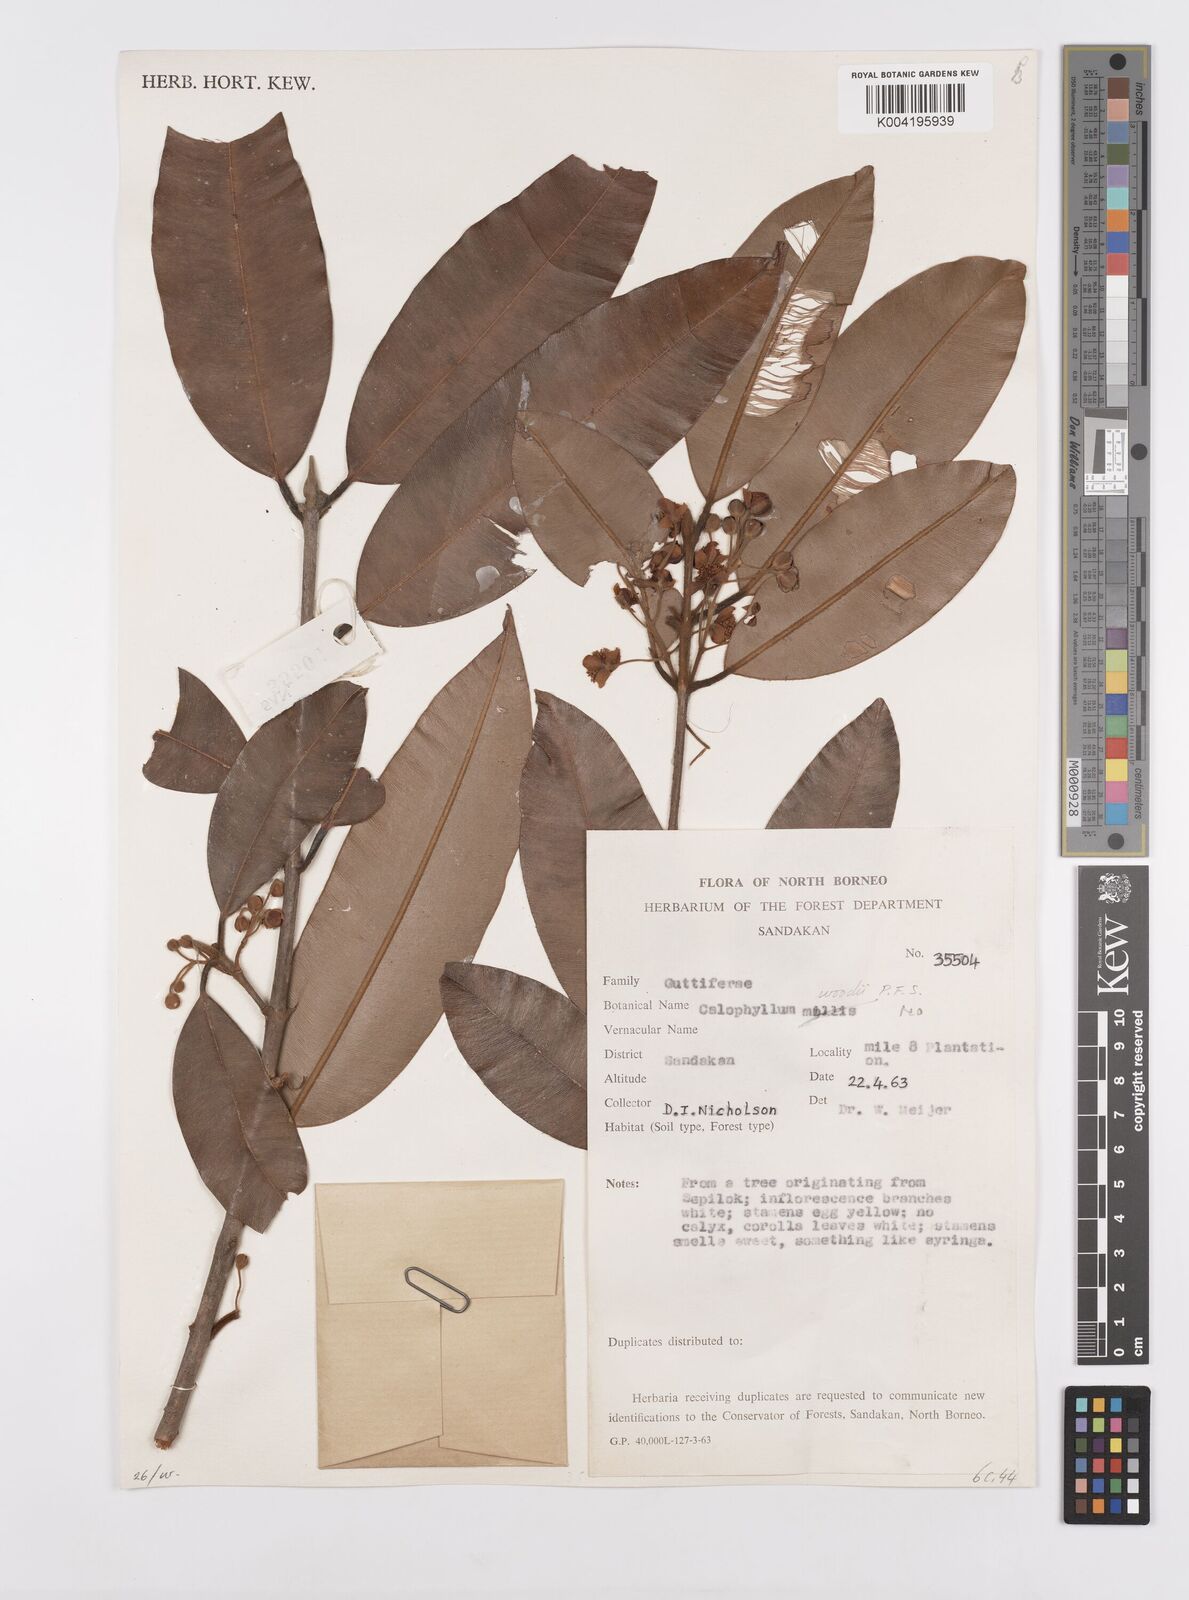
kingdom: Plantae
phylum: Tracheophyta
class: Magnoliopsida
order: Malpighiales
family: Calophyllaceae
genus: Calophyllum
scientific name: Calophyllum woodii
